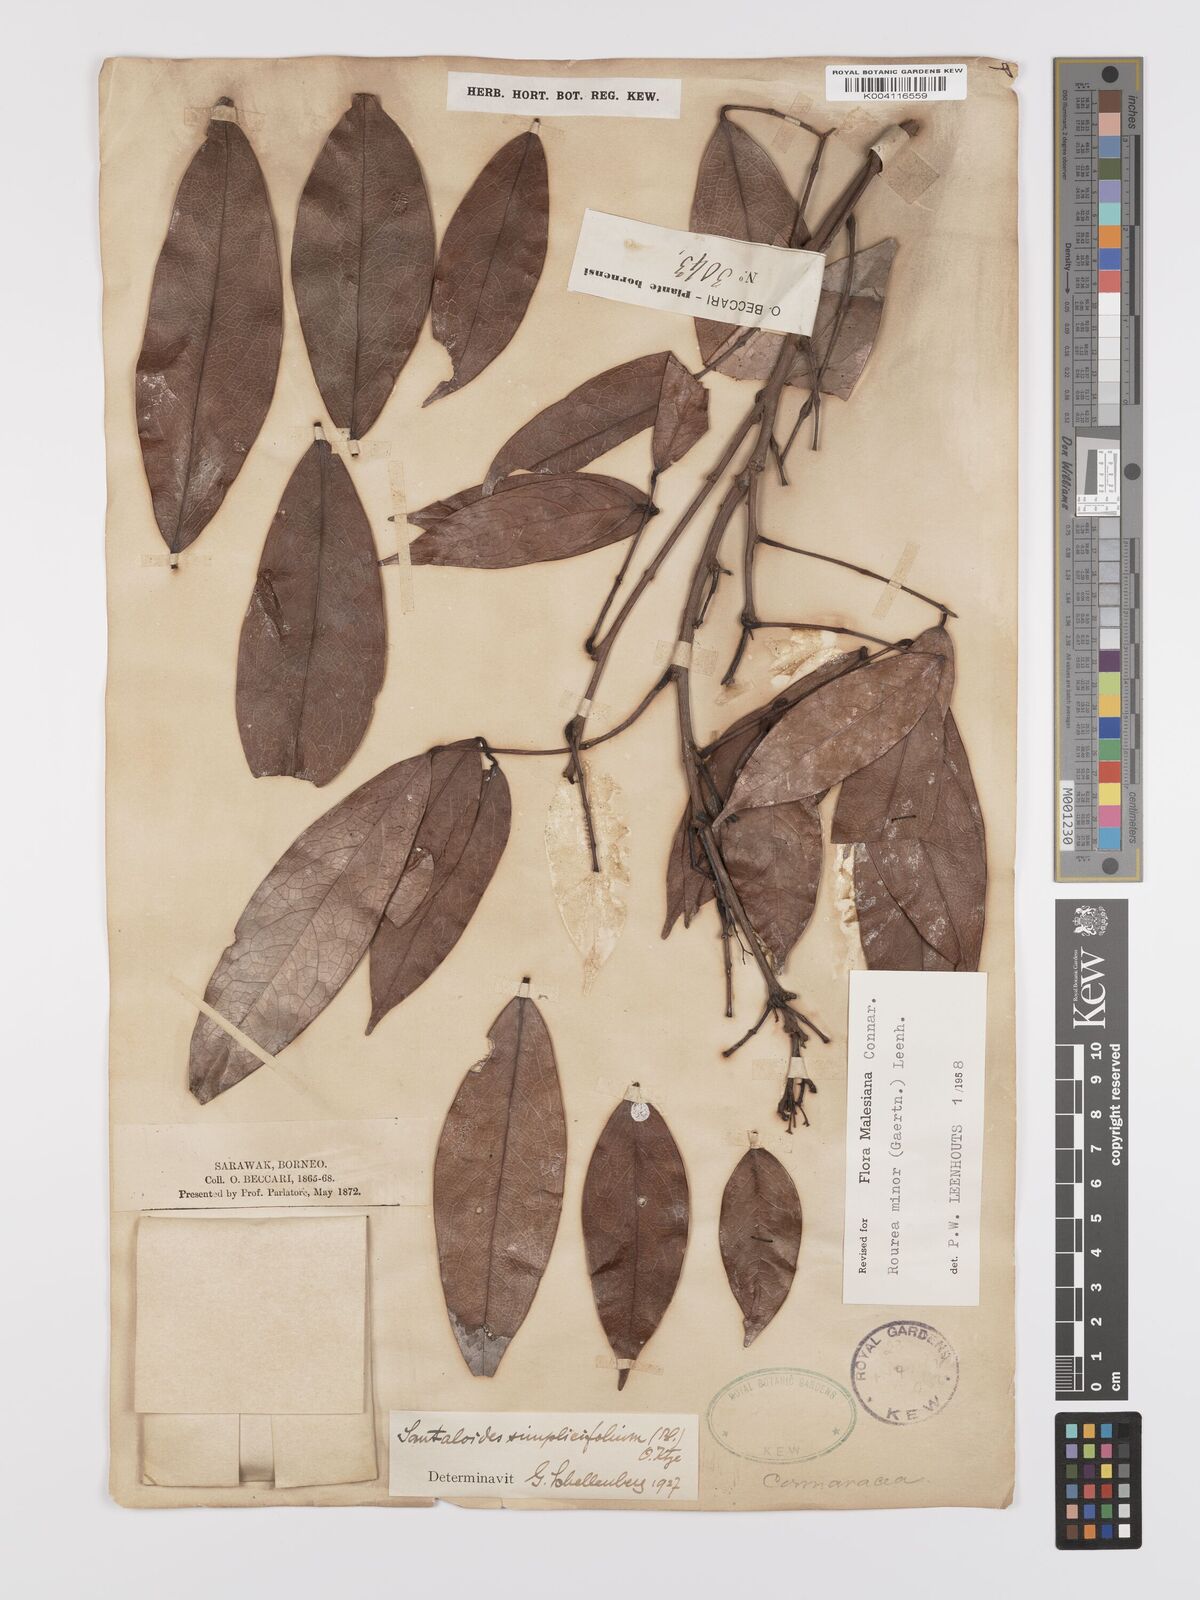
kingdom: Plantae
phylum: Tracheophyta
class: Magnoliopsida
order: Oxalidales
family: Connaraceae
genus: Rourea
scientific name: Rourea minor
